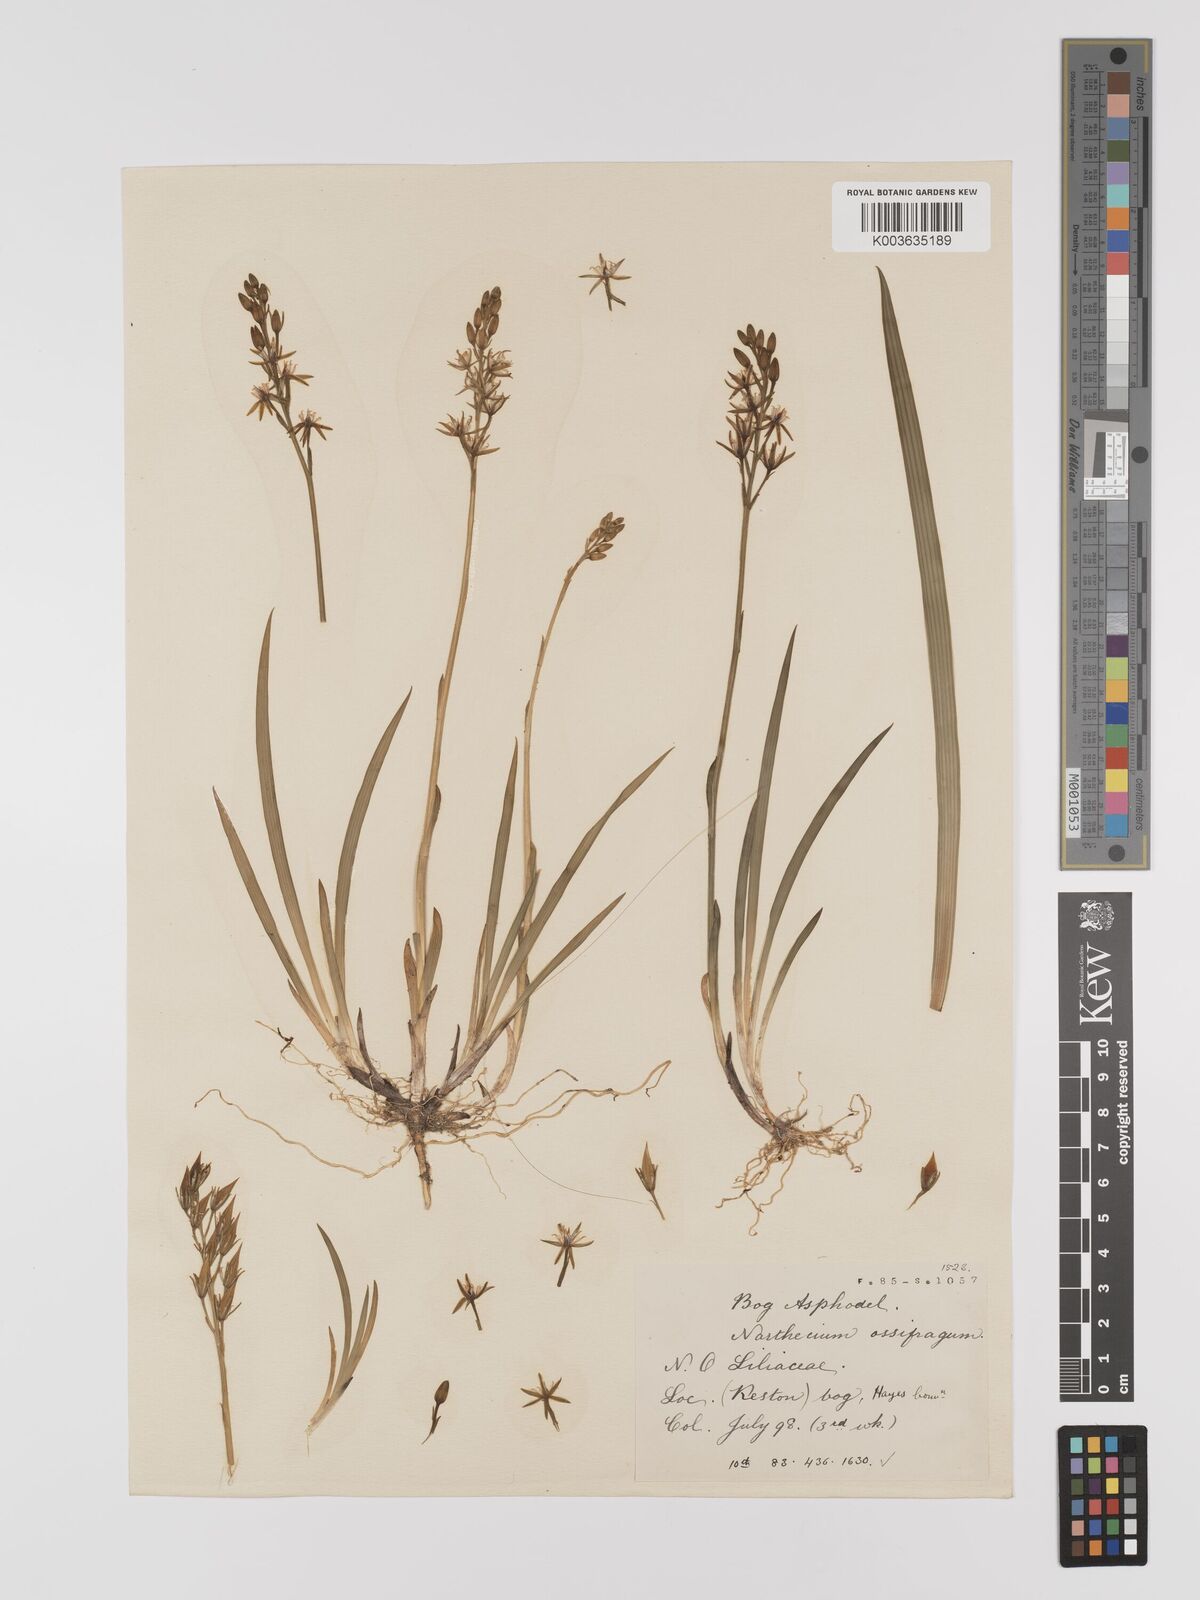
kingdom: Plantae
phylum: Tracheophyta
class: Liliopsida
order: Dioscoreales
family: Nartheciaceae
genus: Narthecium
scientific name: Narthecium
